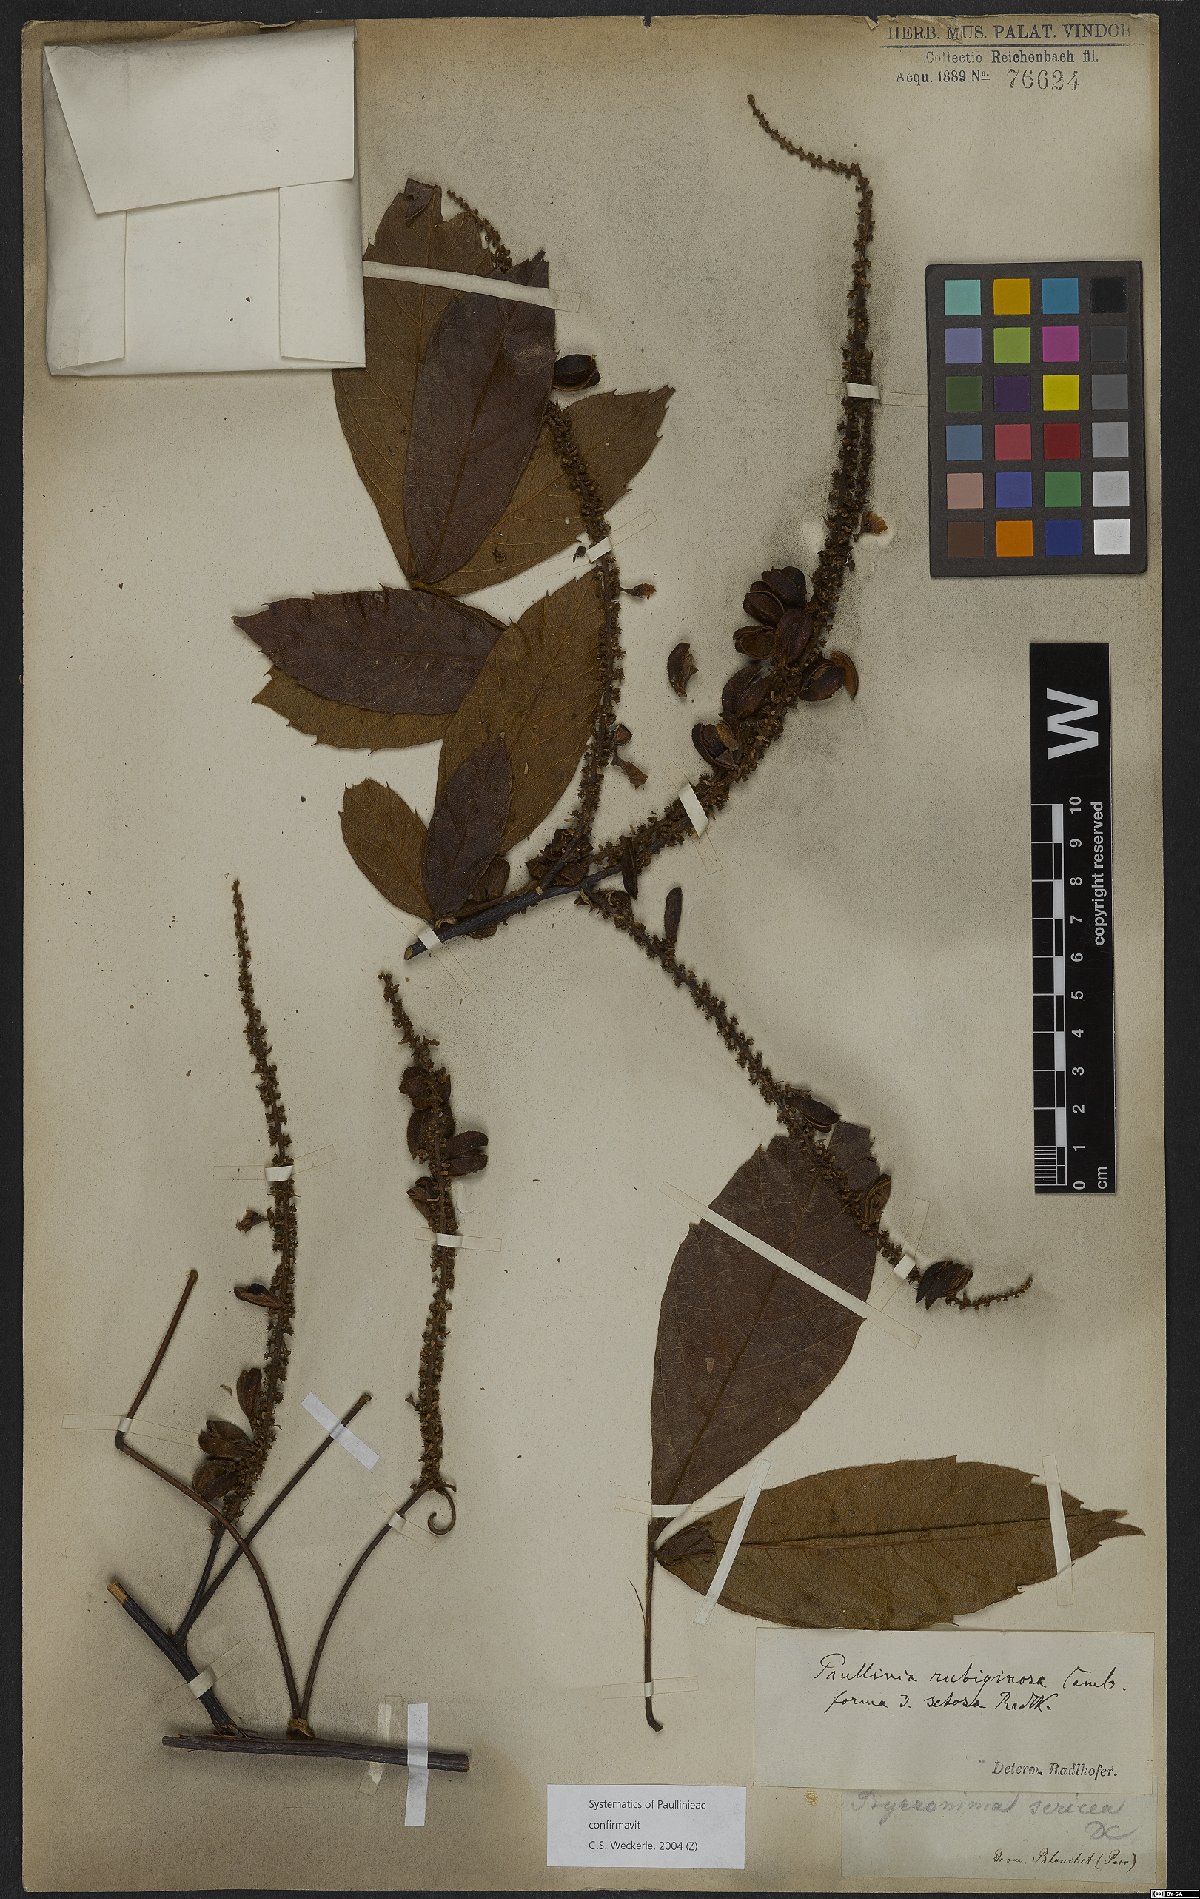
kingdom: Plantae
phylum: Tracheophyta
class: Magnoliopsida
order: Sapindales
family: Sapindaceae
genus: Paullinia
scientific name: Paullinia rubiginosa
